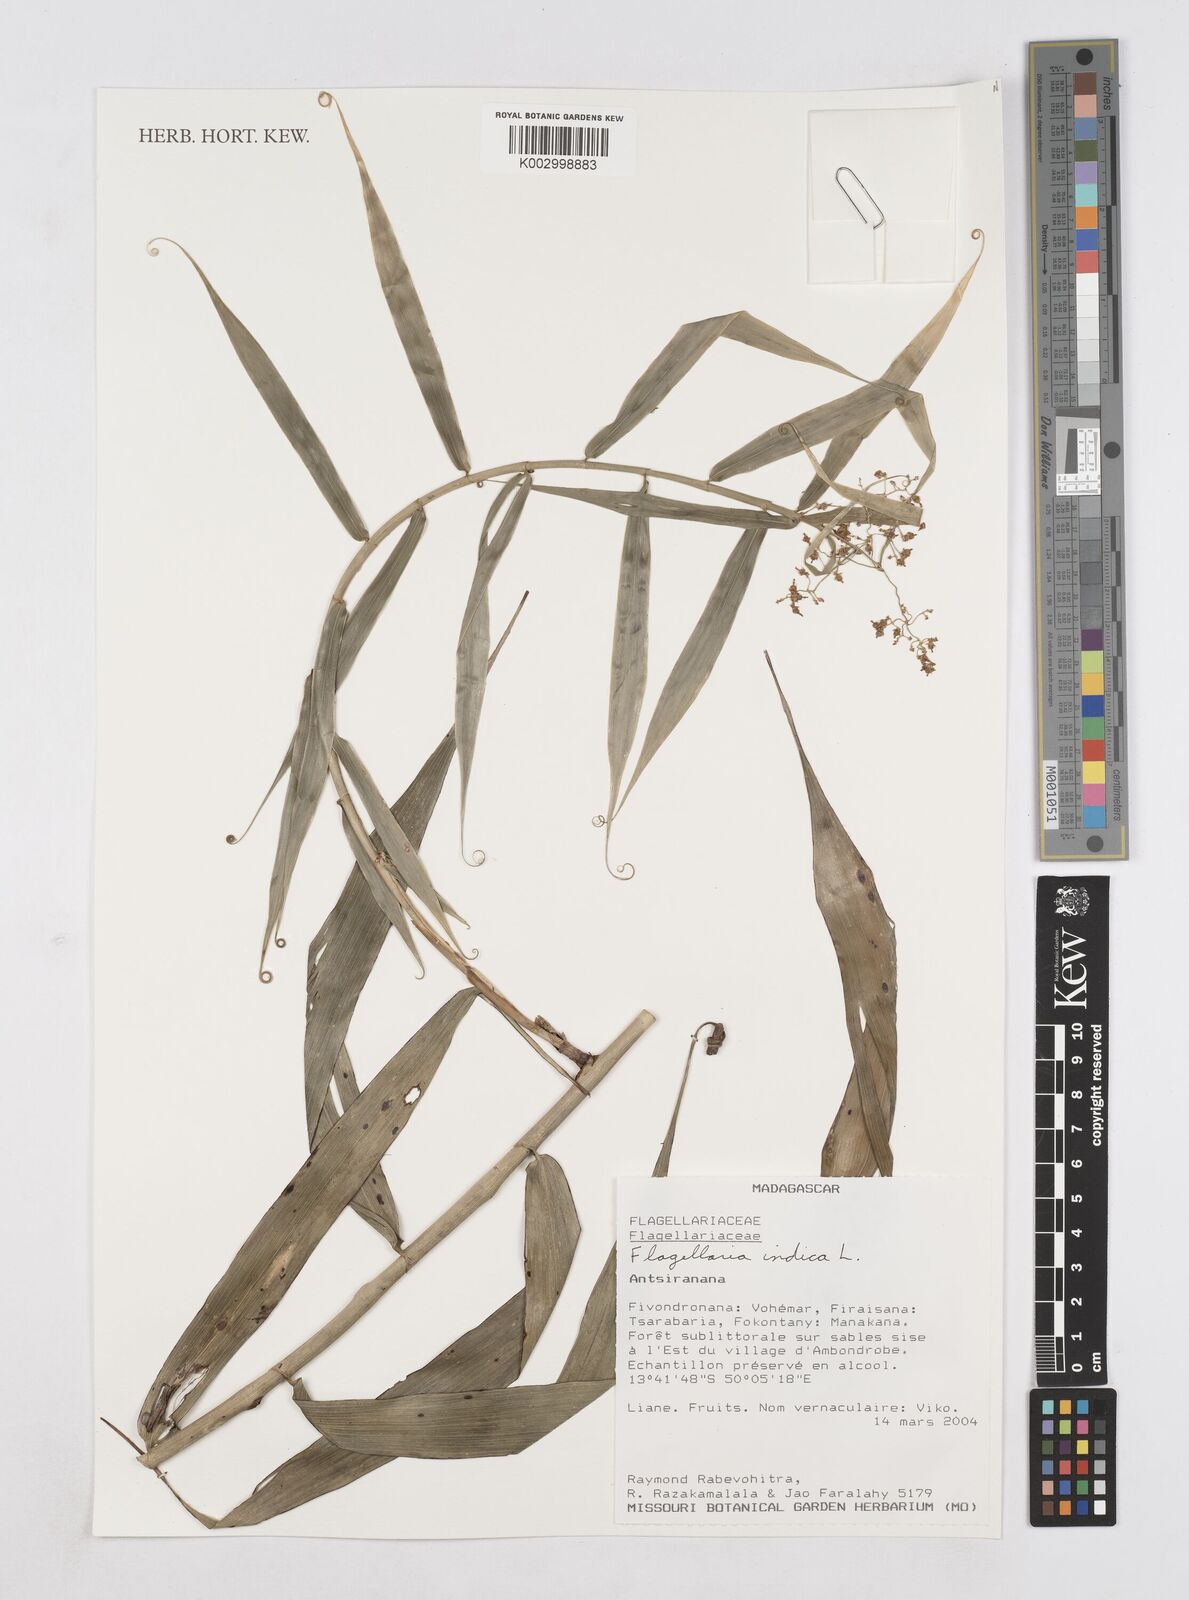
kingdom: Plantae
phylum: Tracheophyta
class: Liliopsida
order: Poales
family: Flagellariaceae
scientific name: Flagellariaceae
